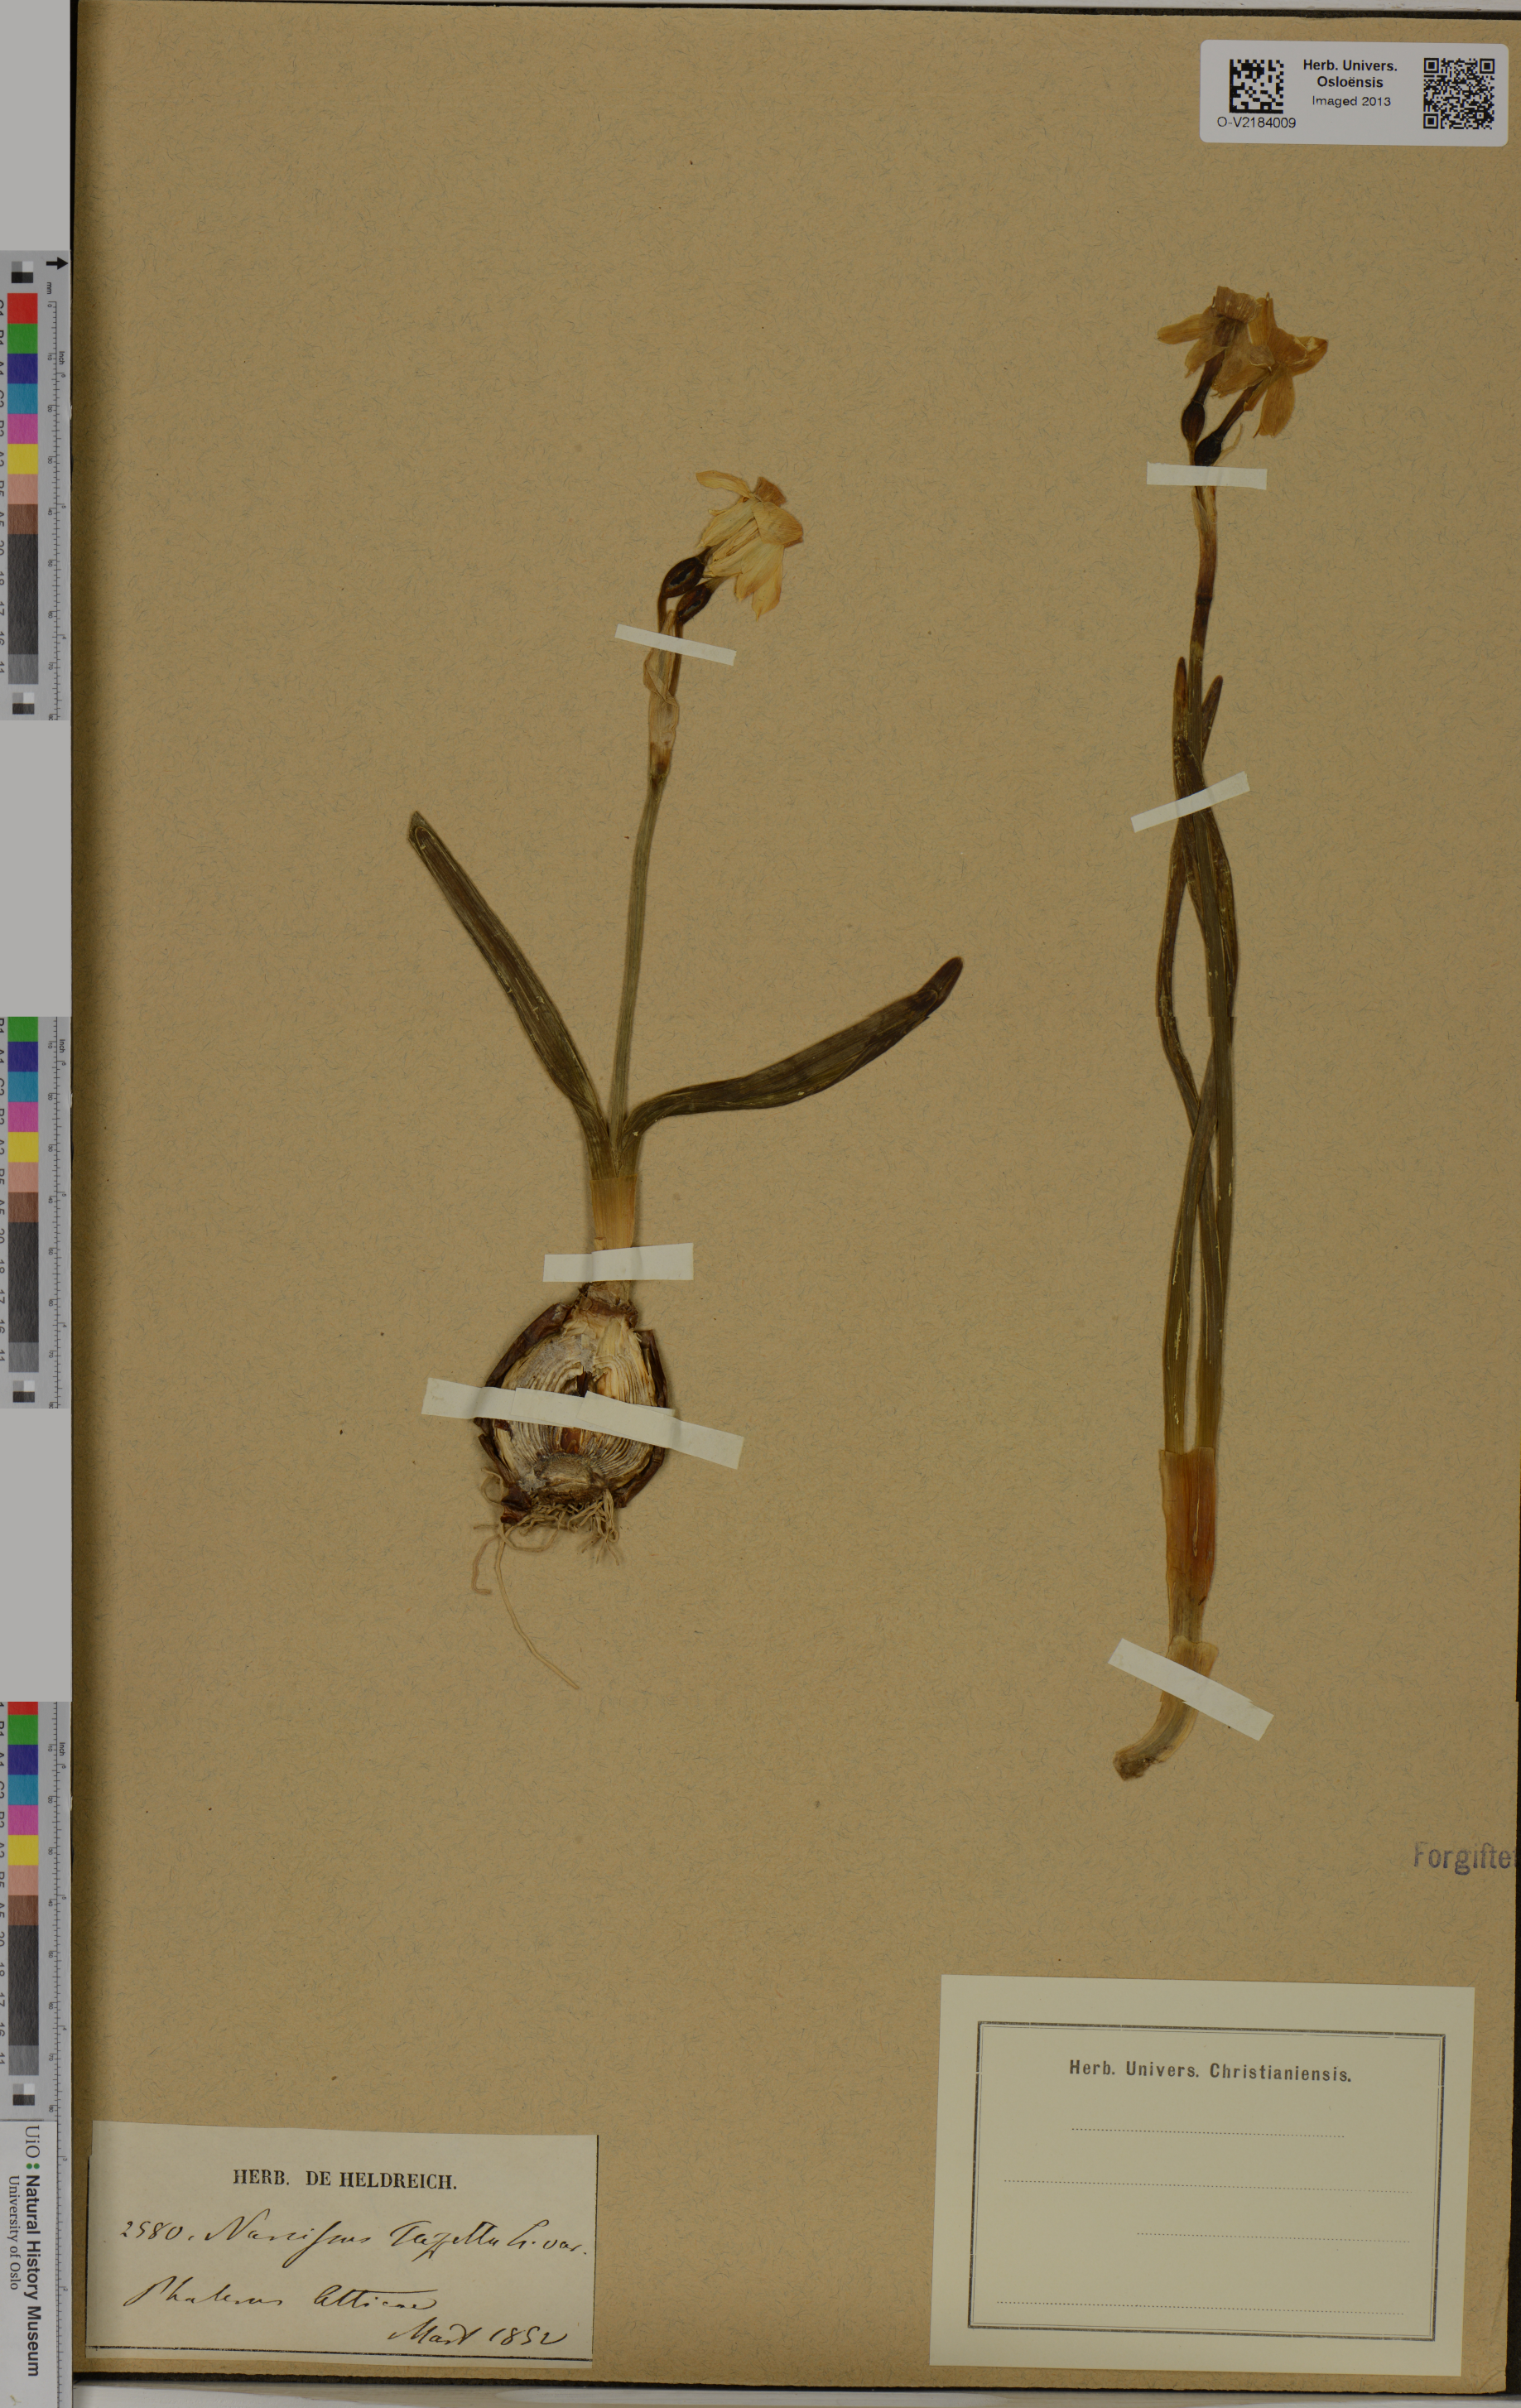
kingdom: Plantae
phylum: Tracheophyta
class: Liliopsida
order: Asparagales
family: Amaryllidaceae
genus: Narcissus
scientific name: Narcissus tazetta
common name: Bunch-flowered daffodil
